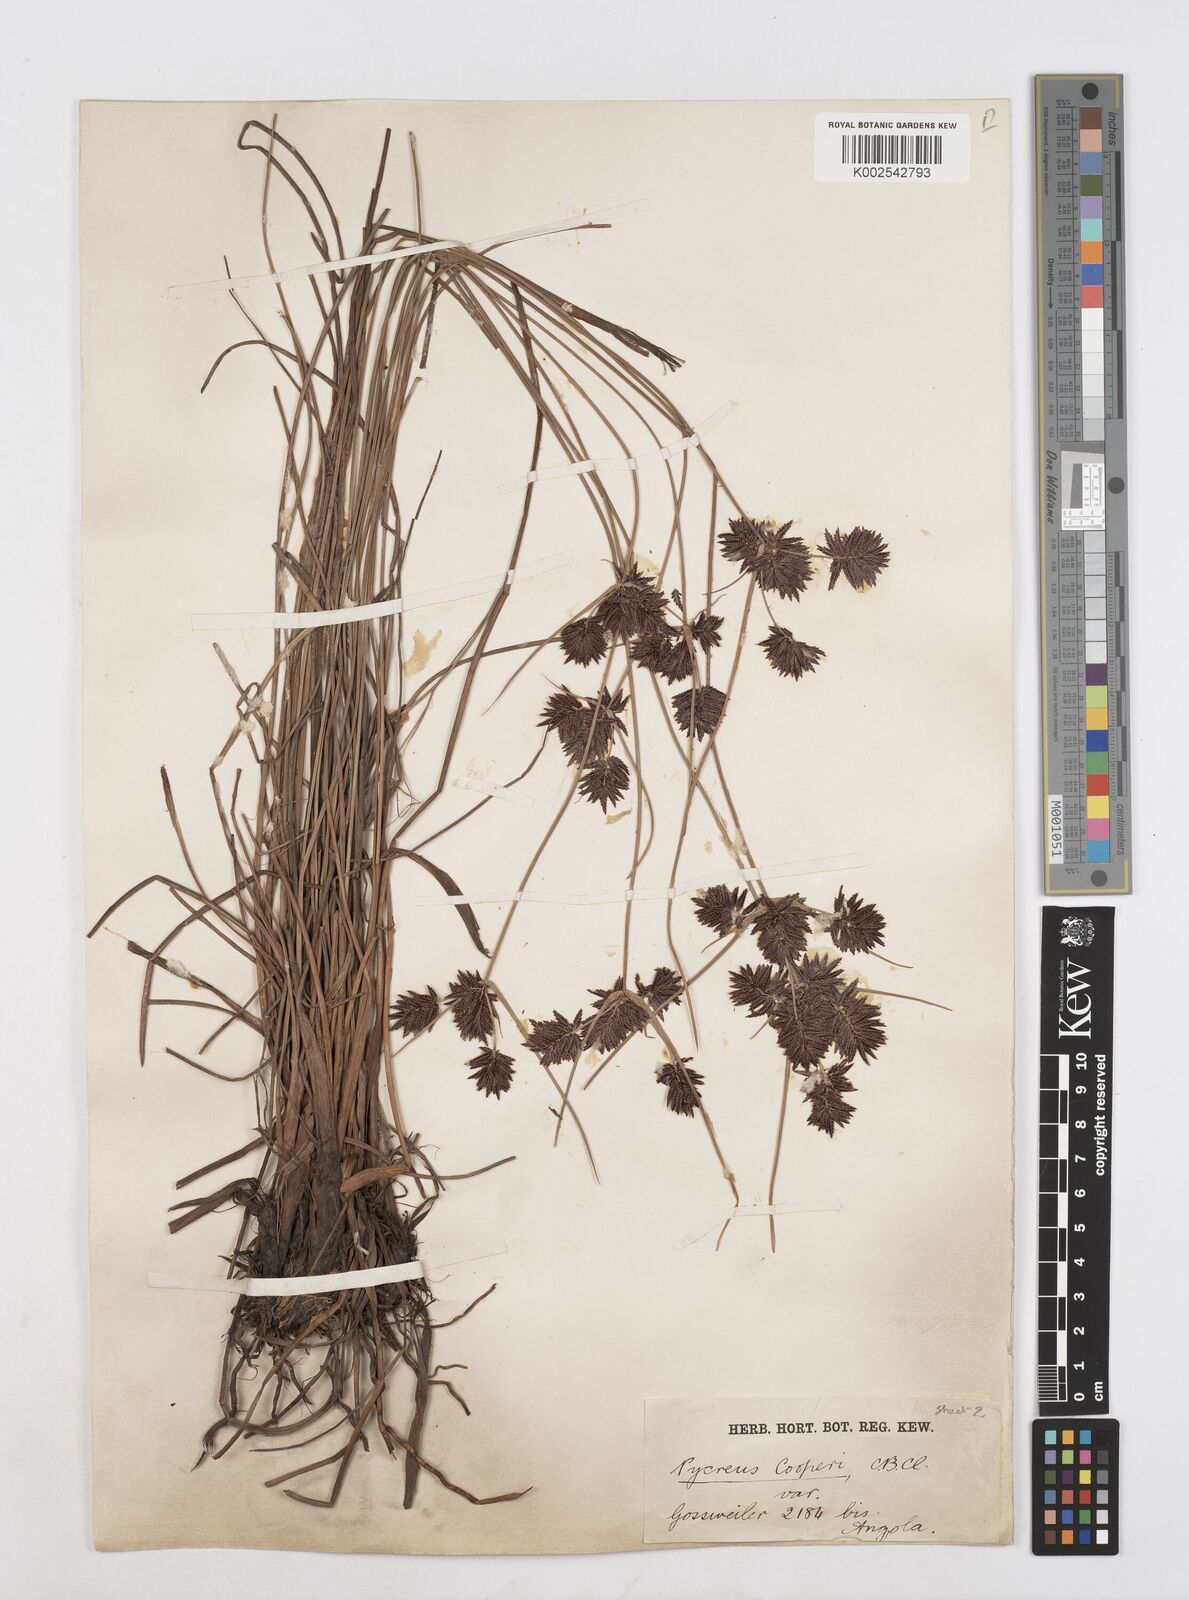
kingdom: Plantae
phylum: Tracheophyta
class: Liliopsida
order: Poales
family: Cyperaceae
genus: Cyperus
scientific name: Cyperus aethiops
